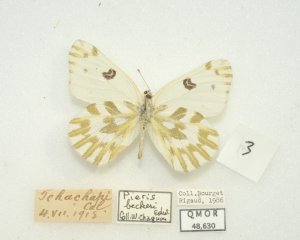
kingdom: Animalia
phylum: Arthropoda
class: Insecta
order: Lepidoptera
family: Pieridae
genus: Pontia
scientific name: Pontia beckerii
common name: Becker's White
